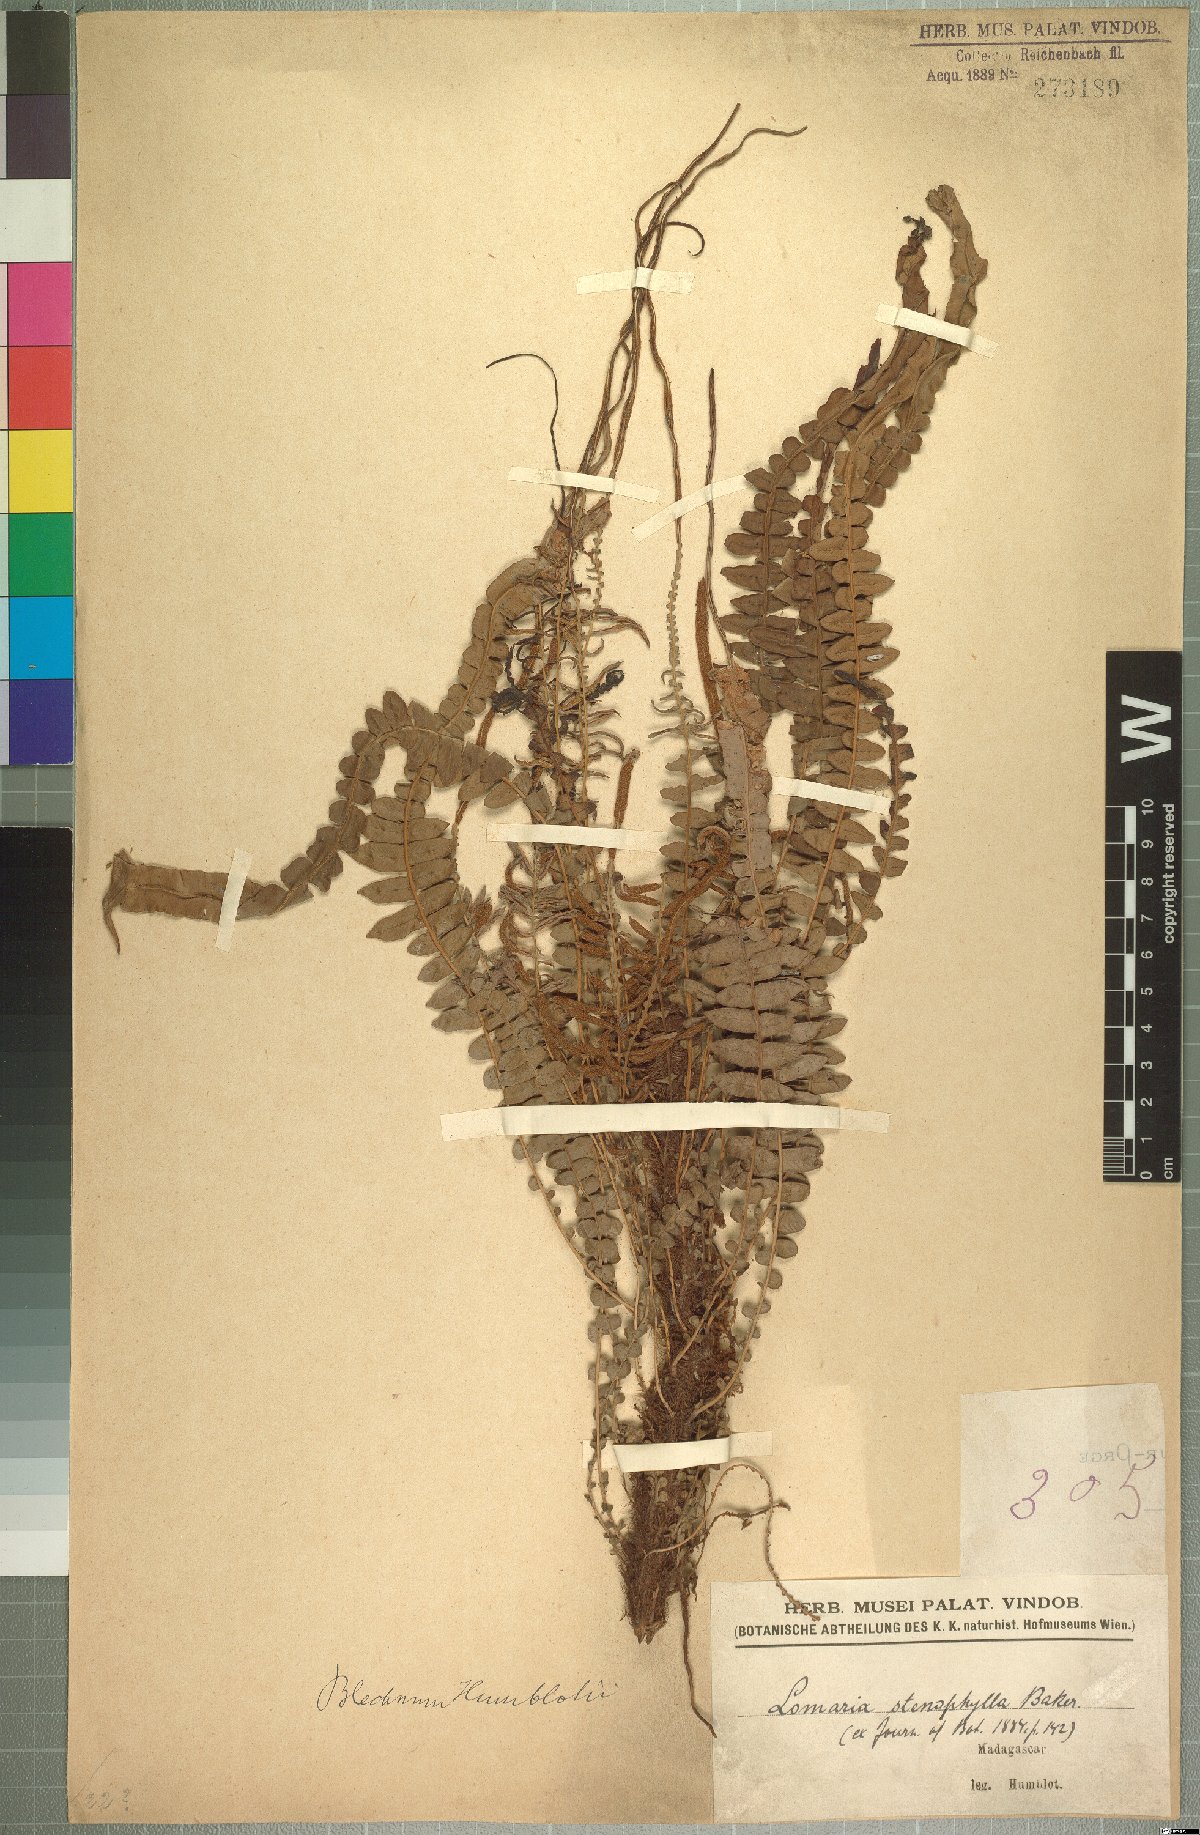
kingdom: Plantae
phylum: Tracheophyta
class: Polypodiopsida
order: Polypodiales
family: Blechnaceae
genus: Lomaridium
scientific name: Lomaridium xiphophyllum
